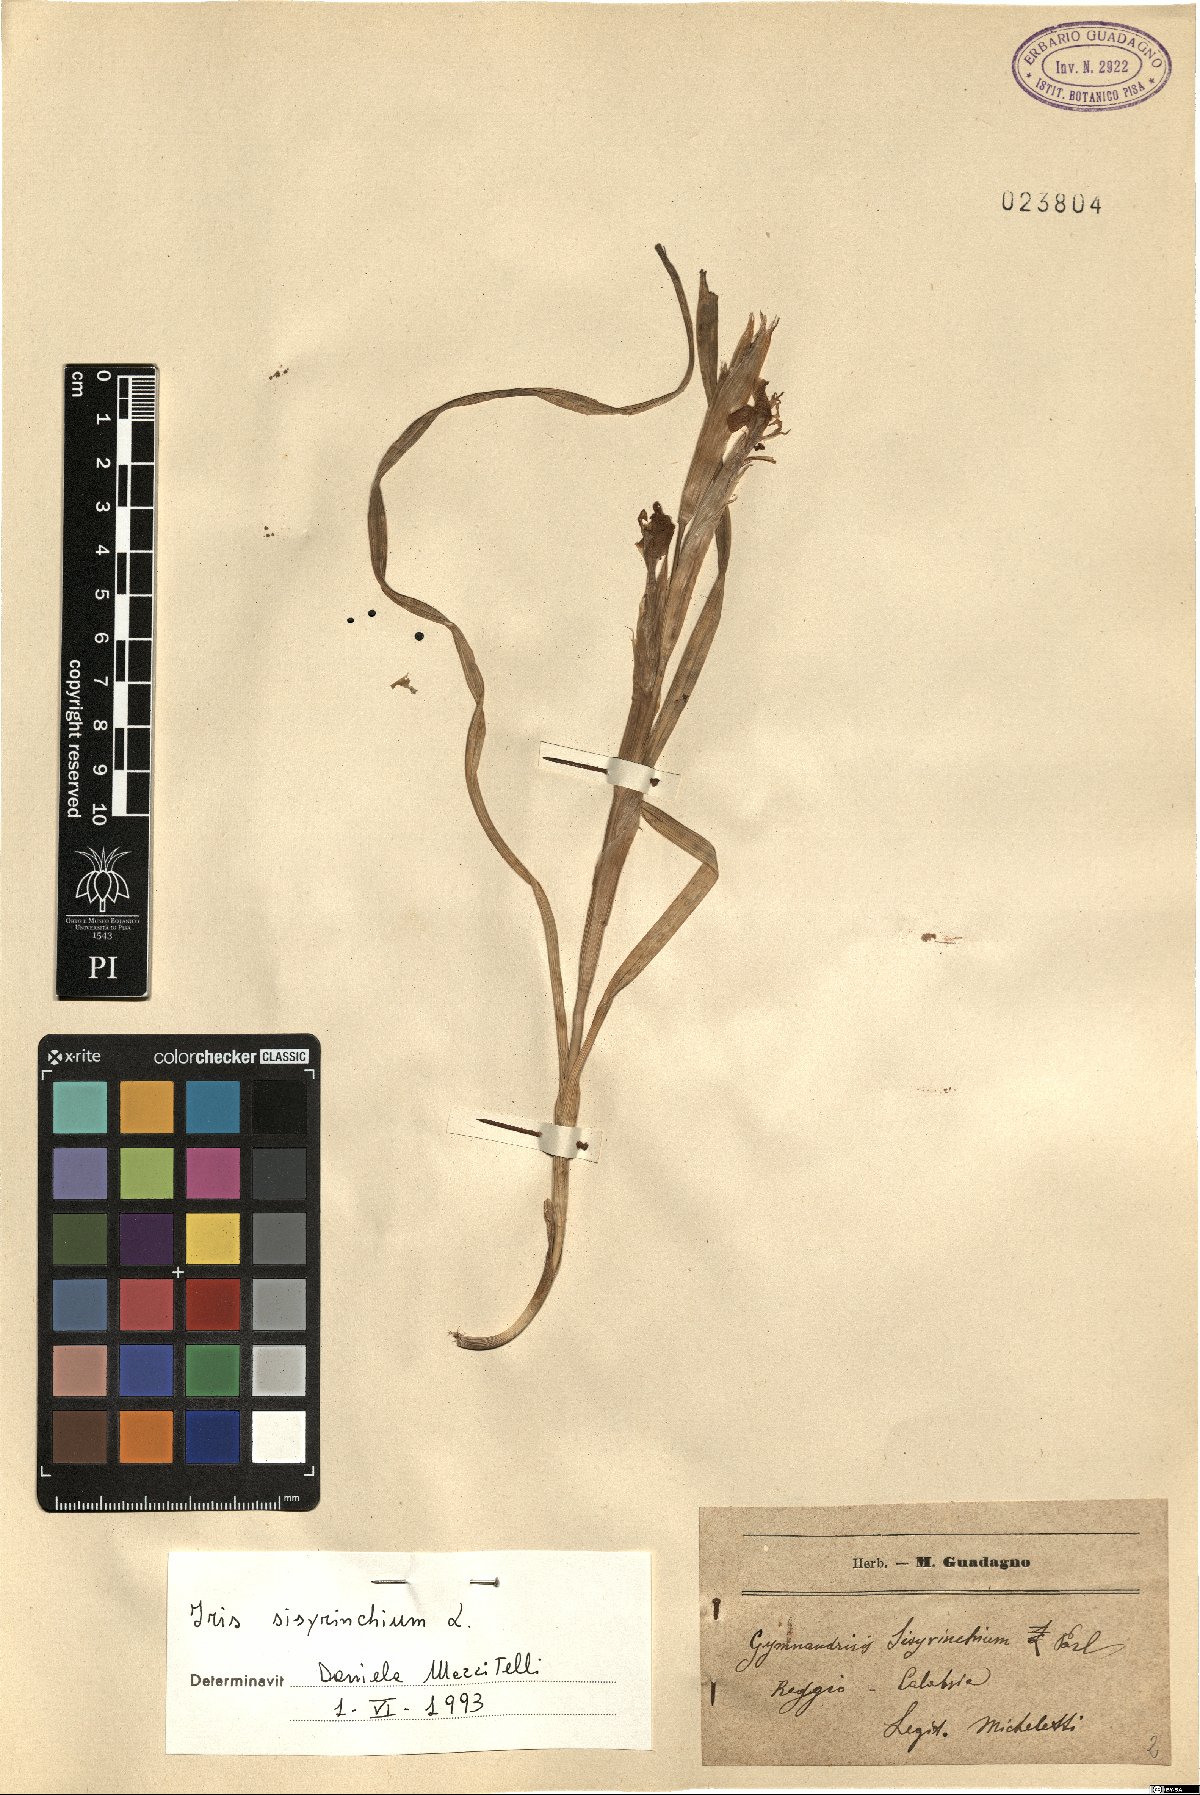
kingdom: Plantae
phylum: Tracheophyta
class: Liliopsida
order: Asparagales
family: Iridaceae
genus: Moraea
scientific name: Moraea sisyrinchium
